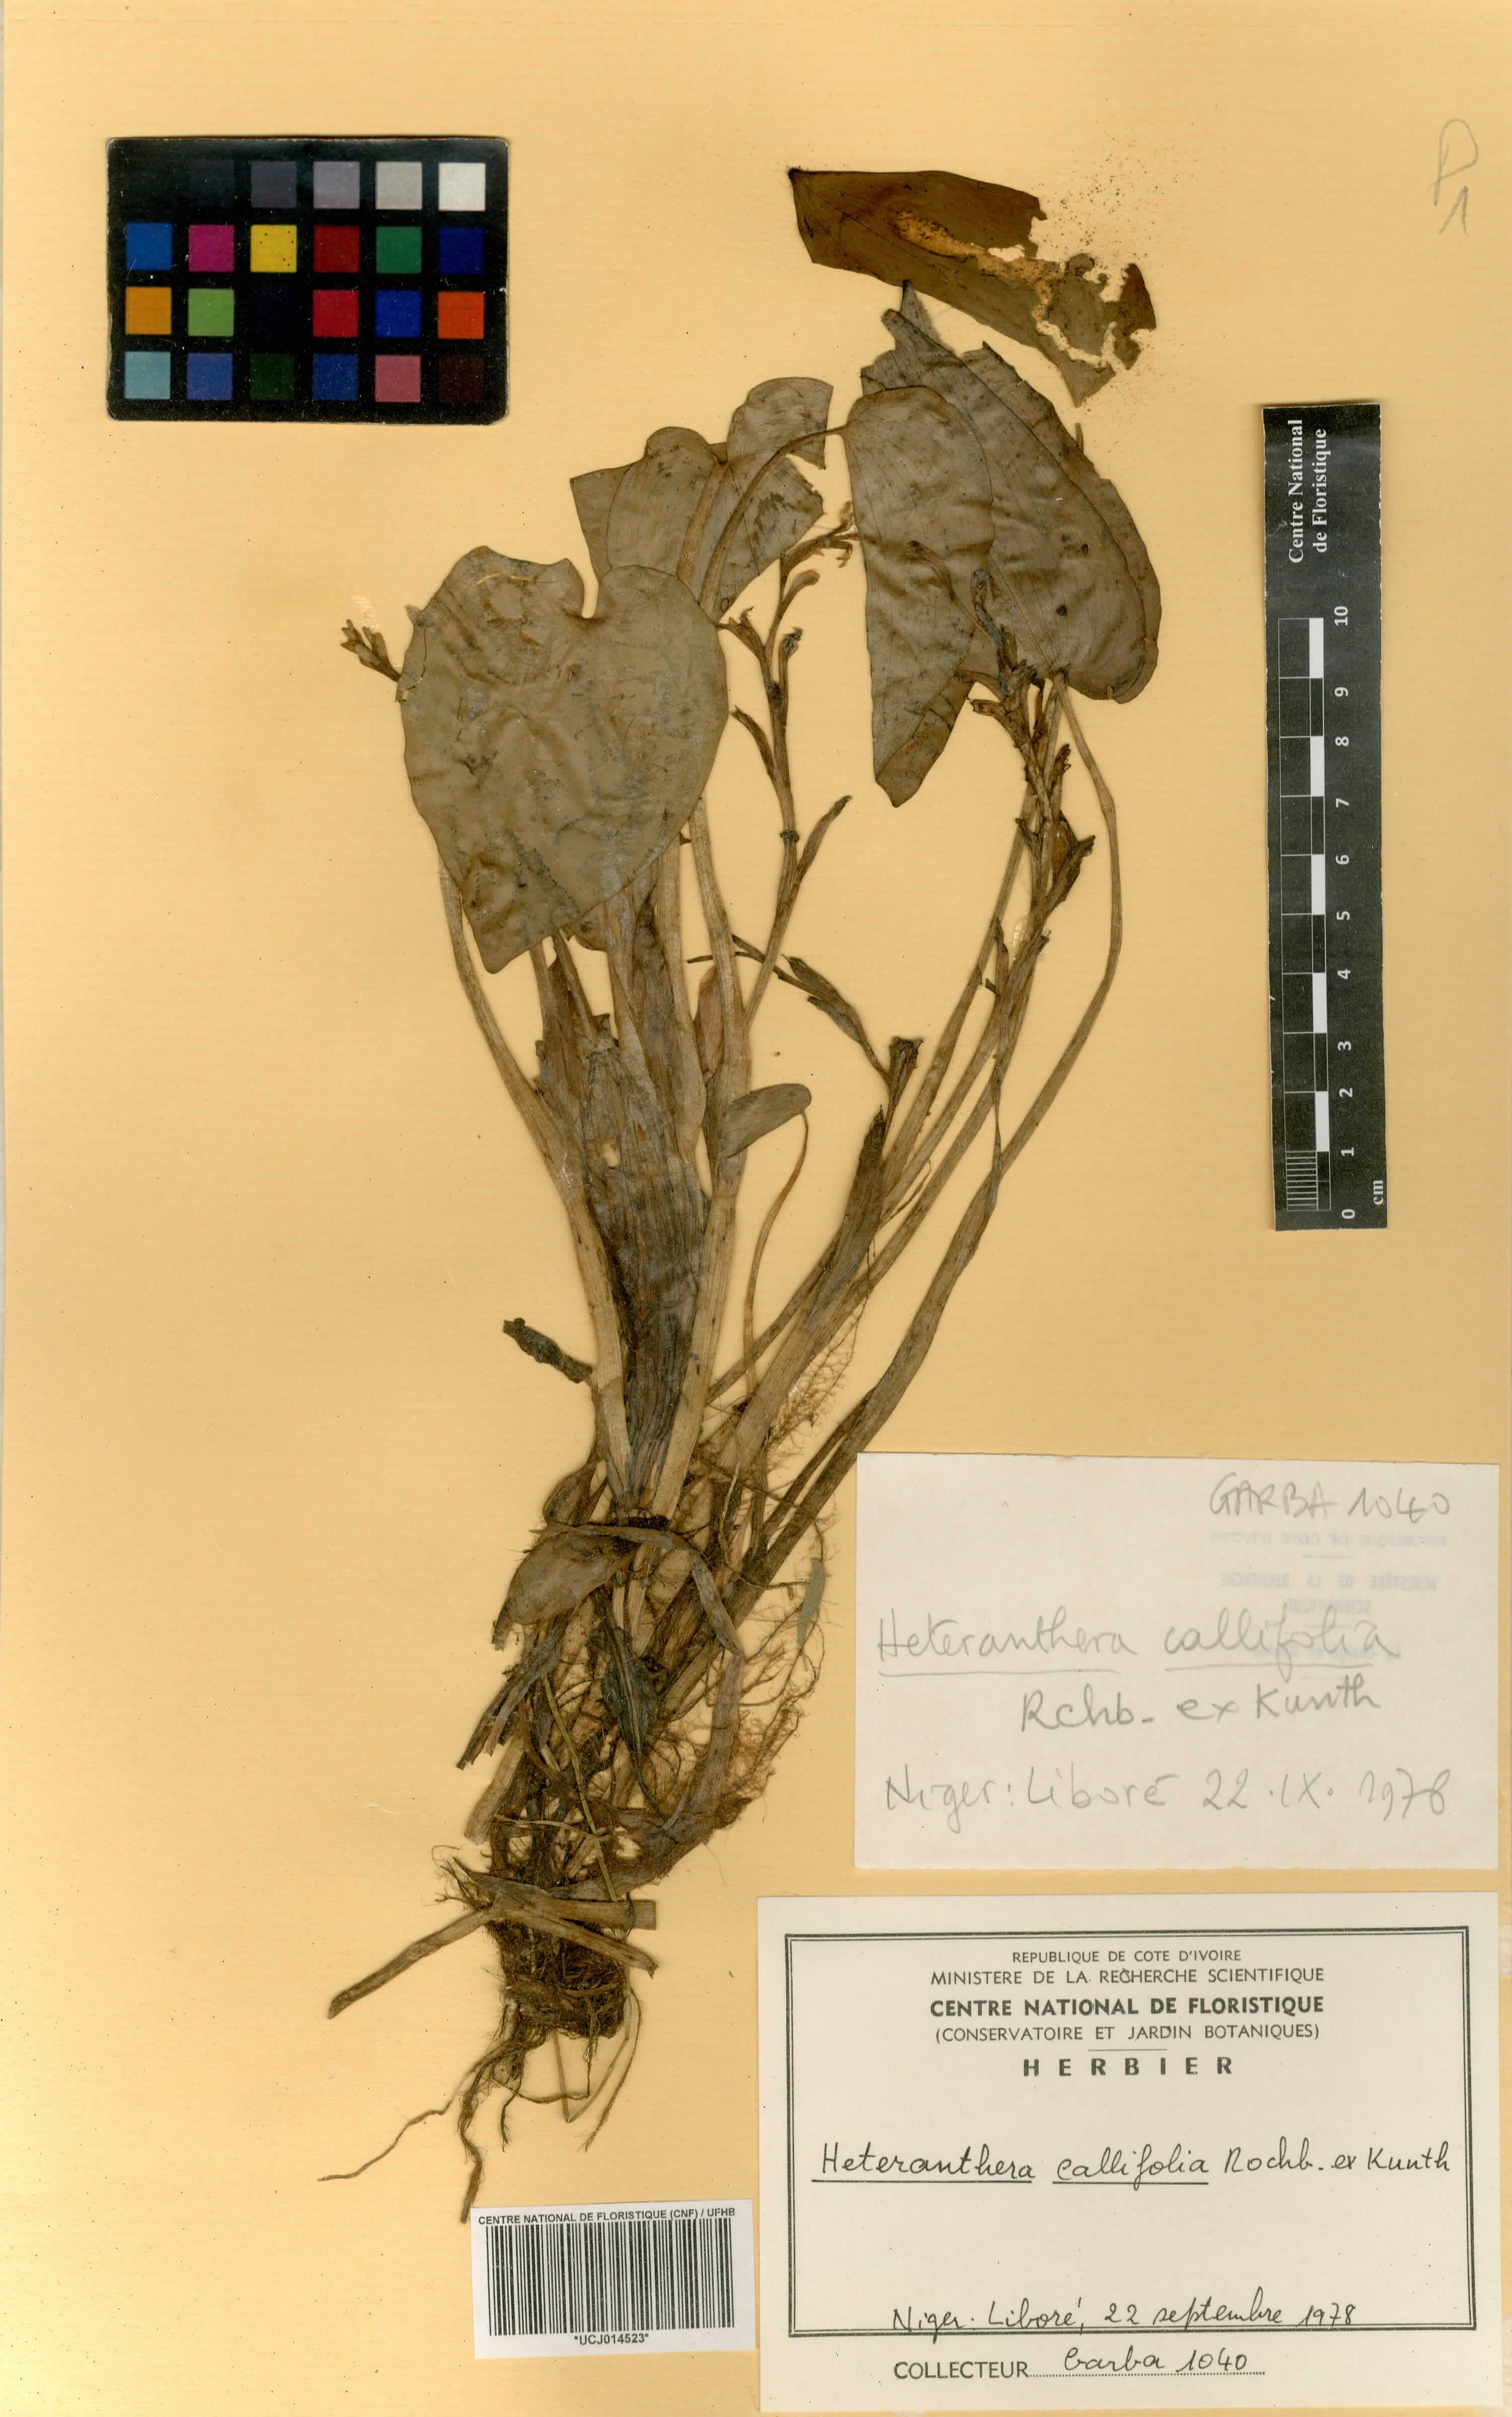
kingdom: Plantae
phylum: Tracheophyta
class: Liliopsida
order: Commelinales
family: Pontederiaceae
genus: Heteranthera
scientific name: Heteranthera callifolia
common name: Mud plantain
